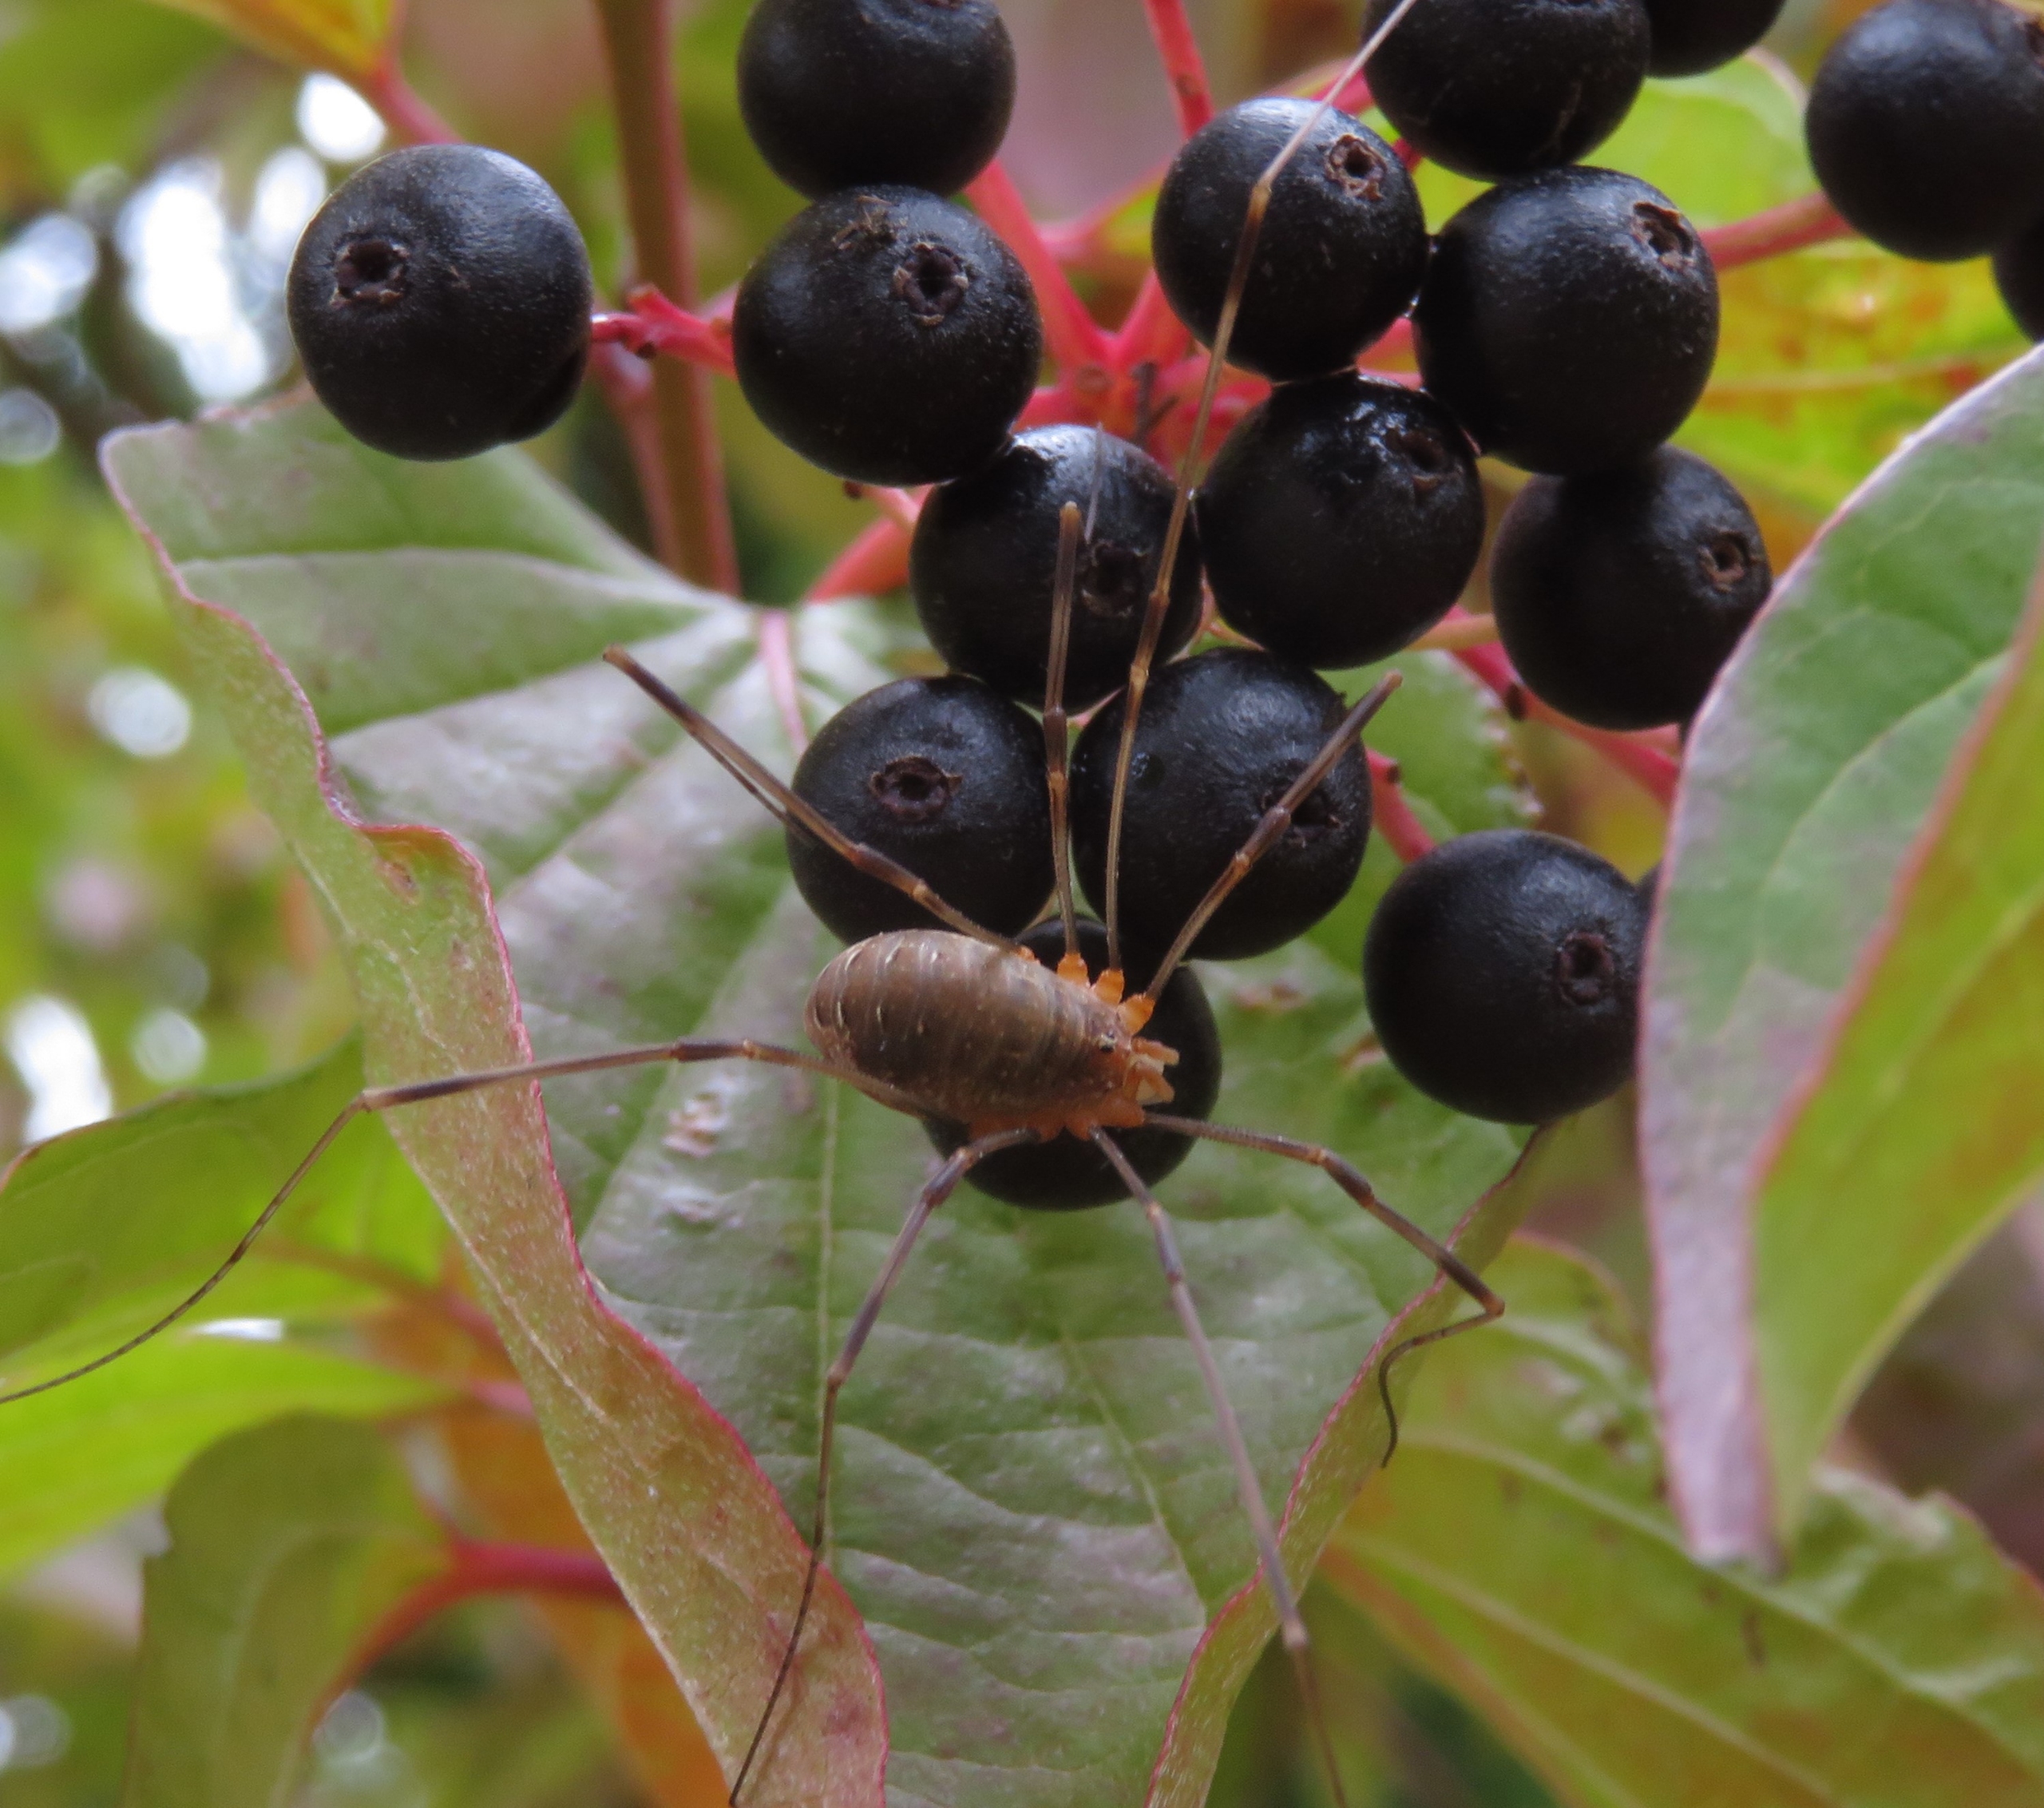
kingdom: Animalia
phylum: Arthropoda
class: Arachnida
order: Opiliones
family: Phalangiidae
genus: Opilio
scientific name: Opilio canestrinii
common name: Orange vægmejer
